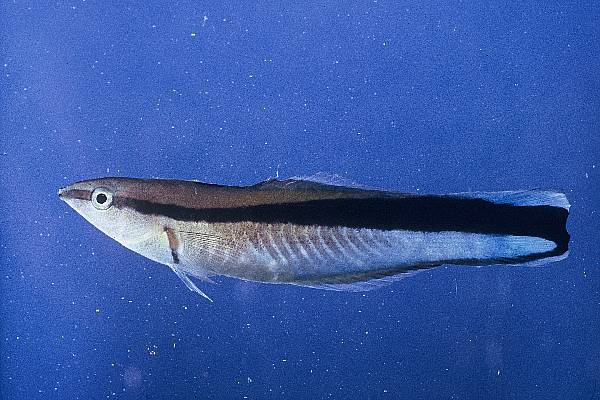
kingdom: Animalia
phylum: Chordata
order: Perciformes
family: Labridae
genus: Labroides
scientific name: Labroides dimidiatus
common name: Blue diesel wrasse
